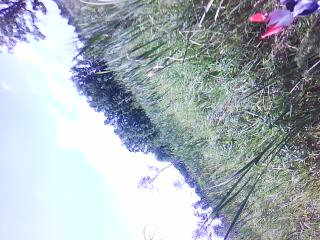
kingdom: Plantae
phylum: Tracheophyta
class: Magnoliopsida
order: Lamiales
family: Lamiaceae
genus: Mentha
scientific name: Mentha canadensis
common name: American corn mint
